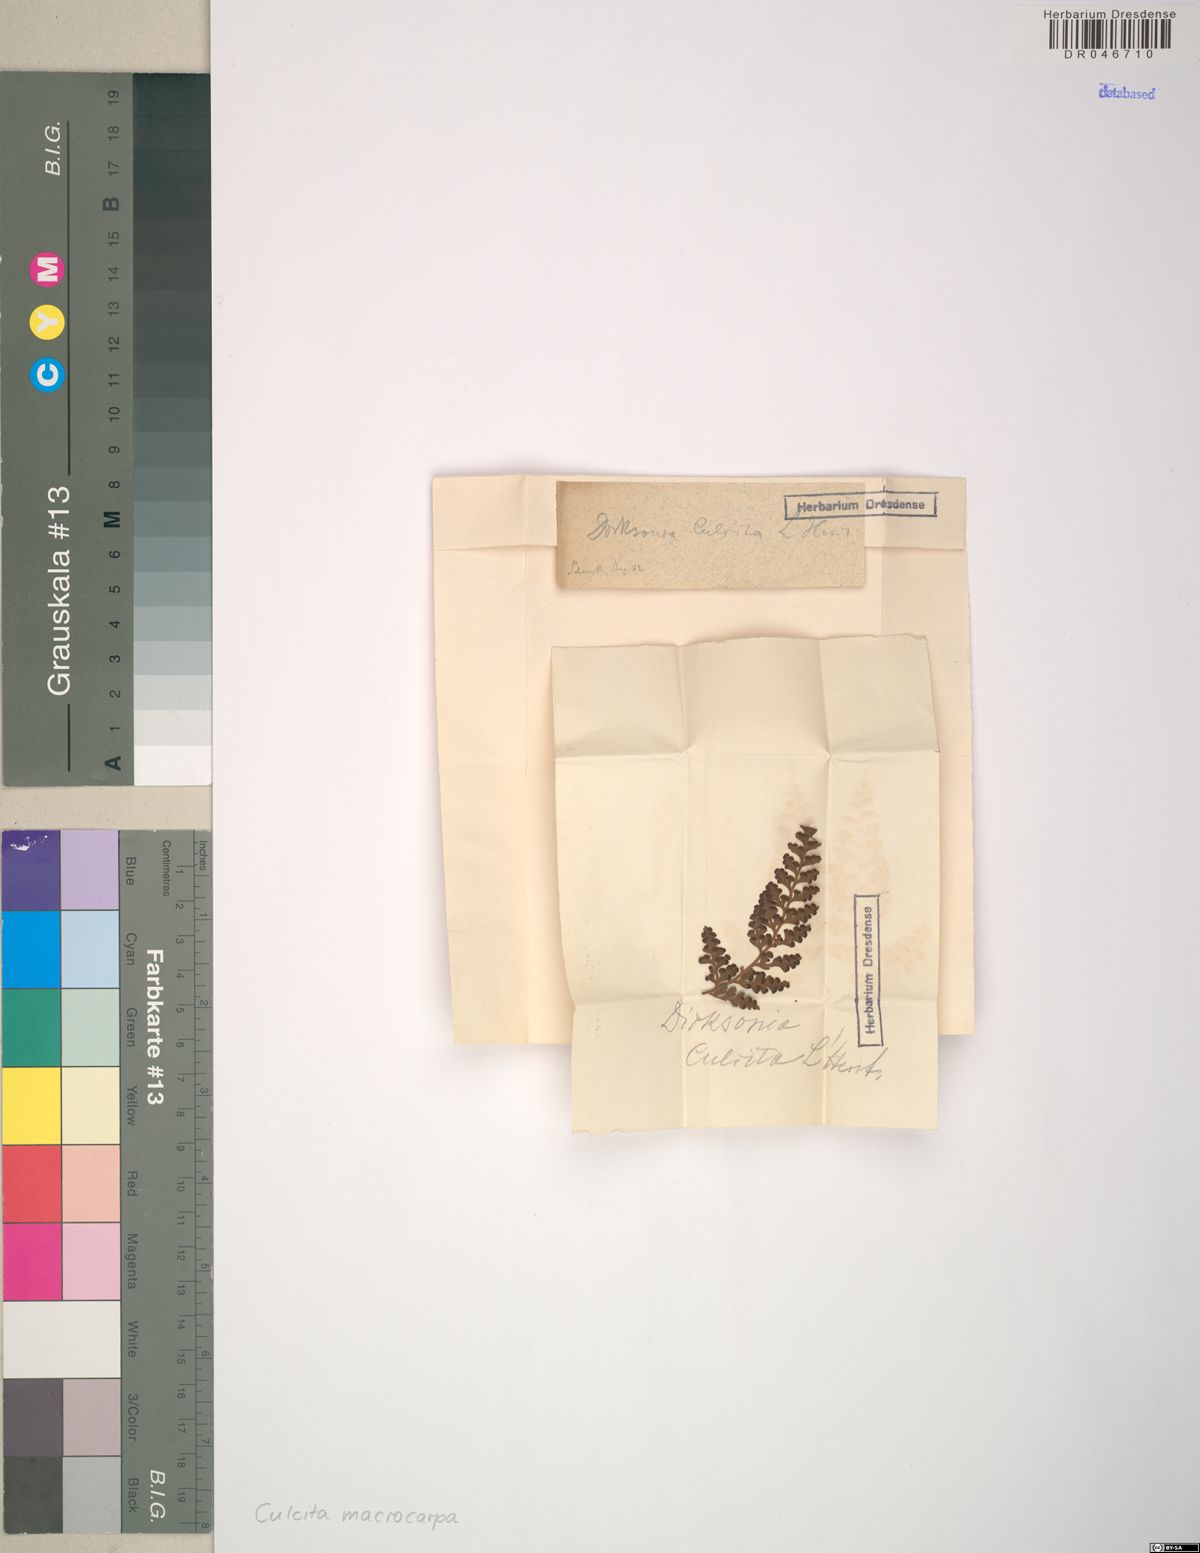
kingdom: Plantae
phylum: Tracheophyta
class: Polypodiopsida
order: Cyatheales
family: Culcitaceae
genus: Culcita
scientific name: Culcita macrocarpa
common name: Woolly tree fern
